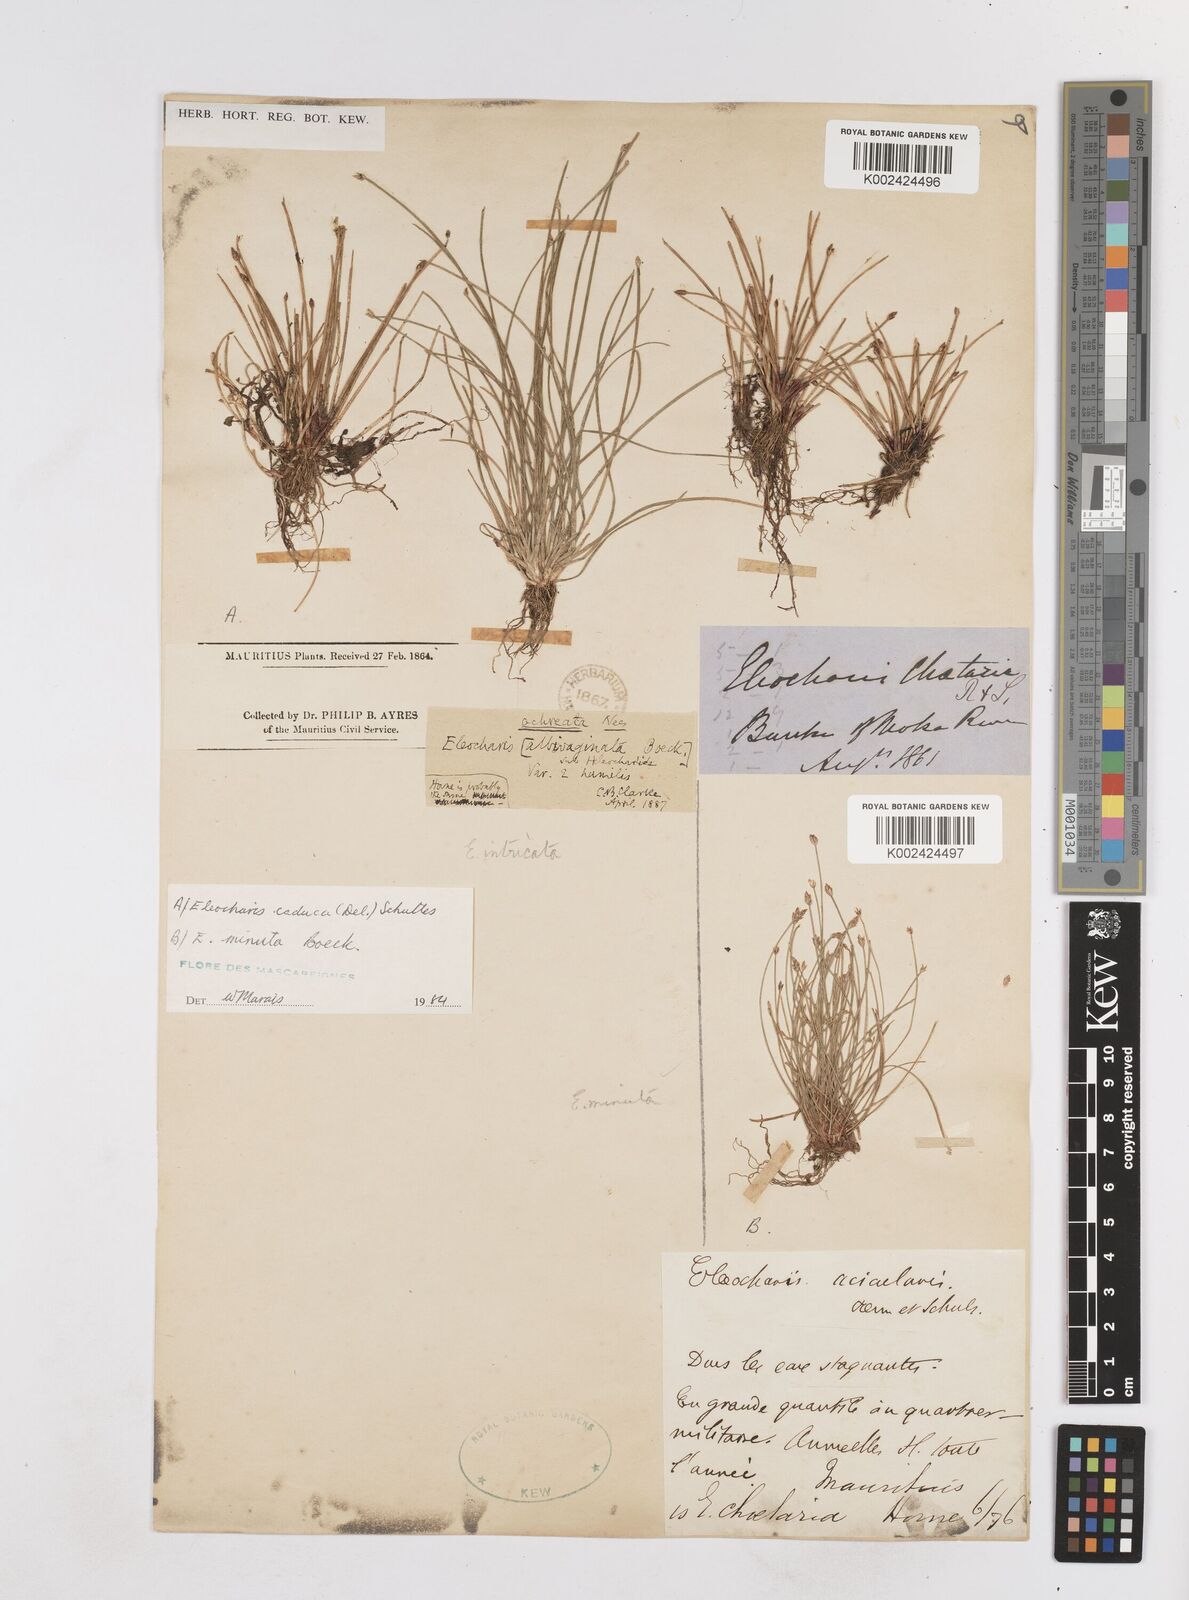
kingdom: Plantae
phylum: Tracheophyta
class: Liliopsida
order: Poales
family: Cyperaceae
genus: Eleocharis
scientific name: Eleocharis minuta
